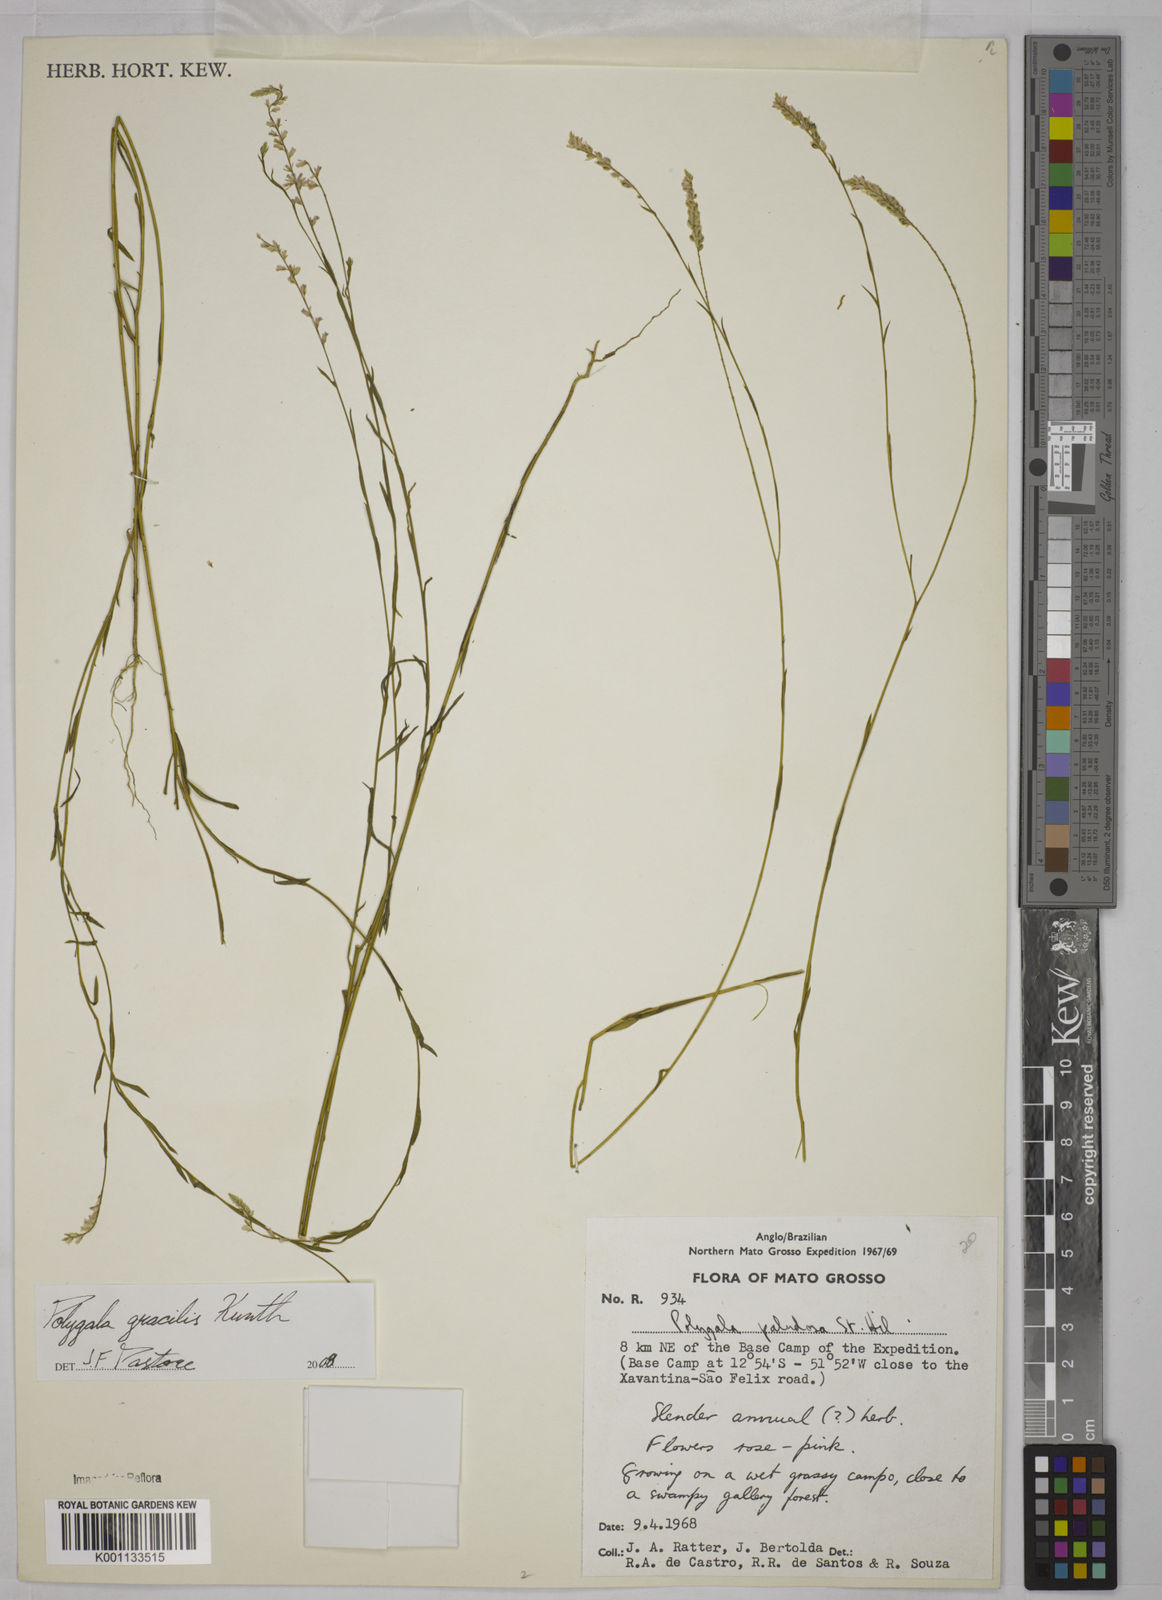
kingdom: Plantae
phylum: Tracheophyta
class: Magnoliopsida
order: Fabales
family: Polygalaceae
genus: Polygala
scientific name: Polygala gracilis
